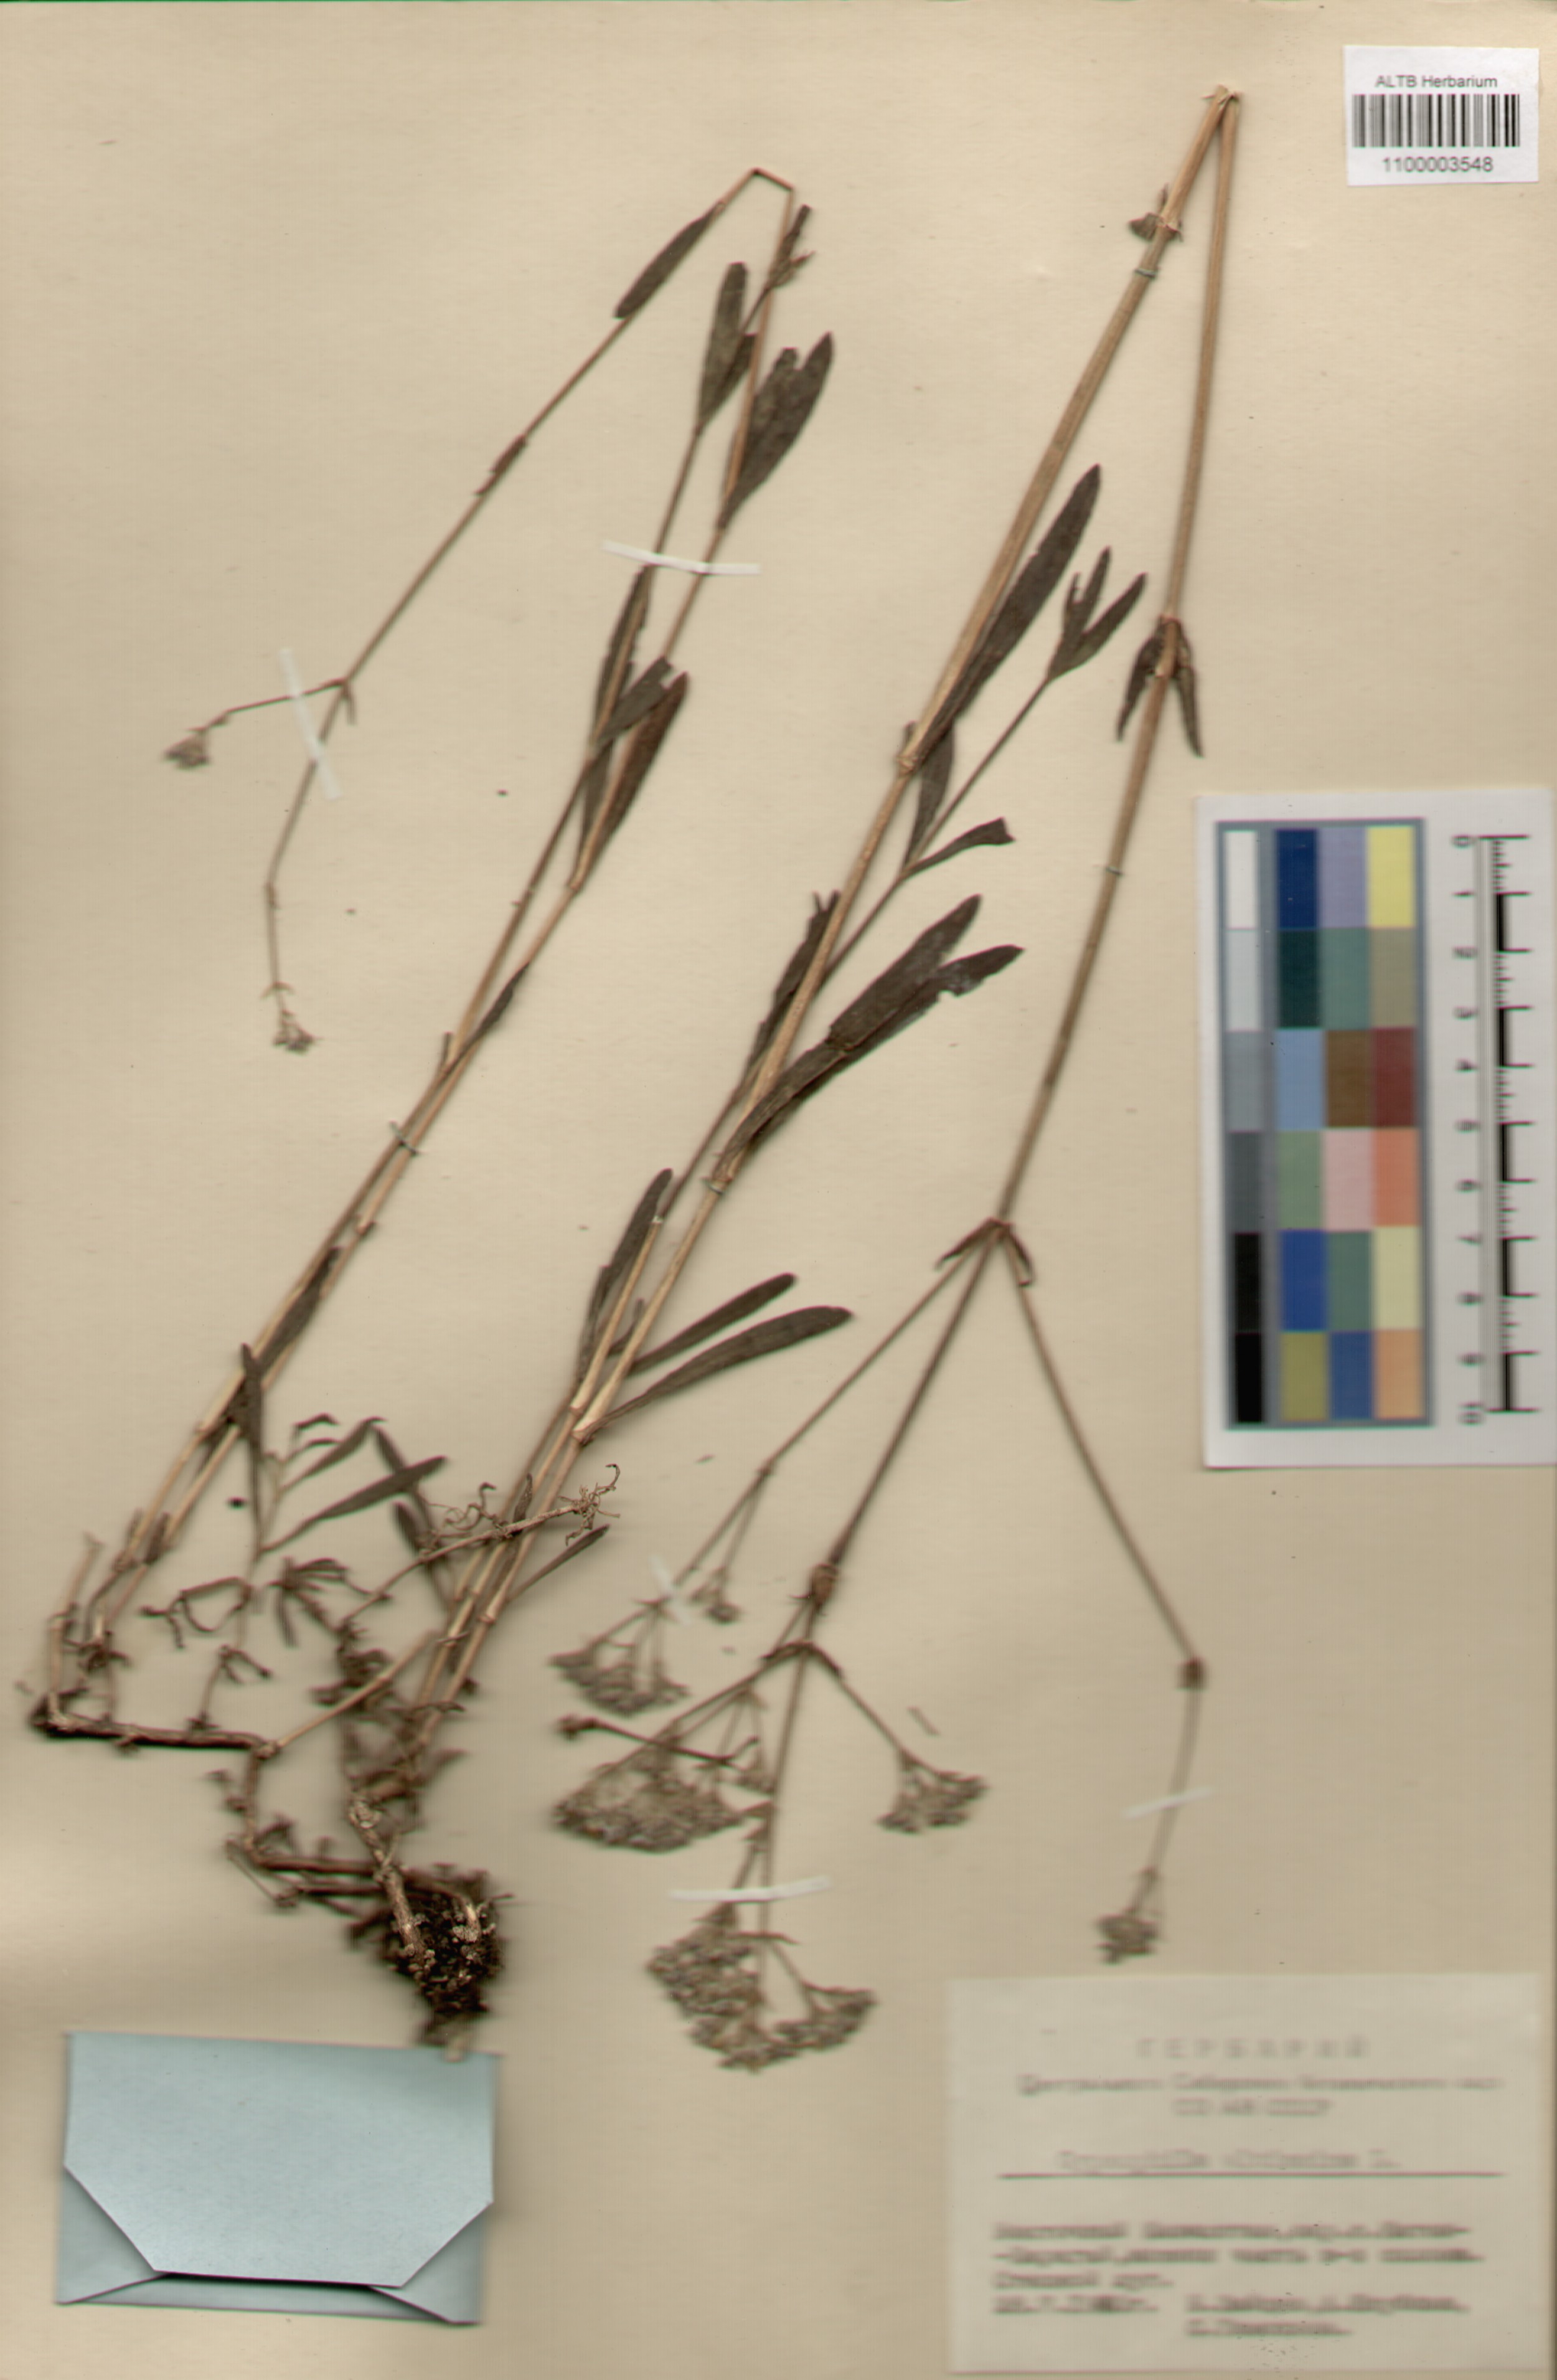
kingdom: Plantae
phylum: Tracheophyta
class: Magnoliopsida
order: Caryophyllales
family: Caryophyllaceae
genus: Gypsophila
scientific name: Gypsophila altissima
